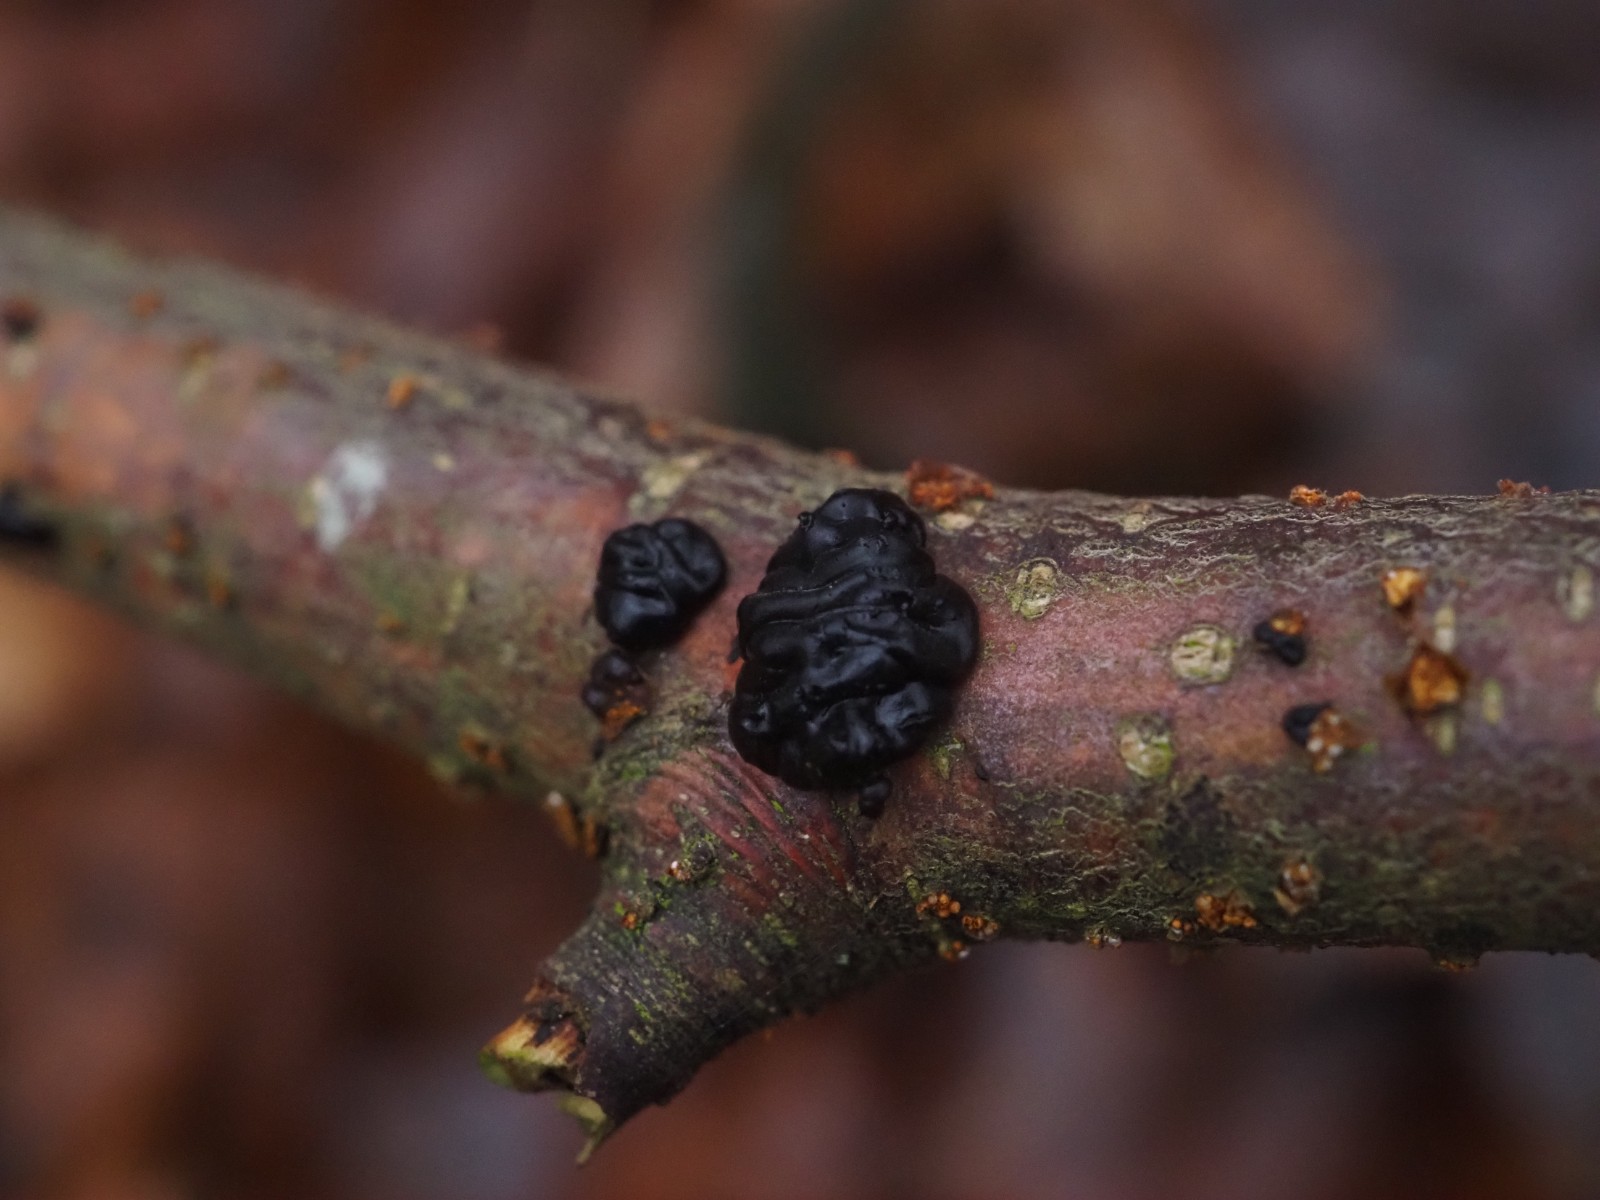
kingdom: Fungi
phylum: Basidiomycota
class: Agaricomycetes
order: Auriculariales
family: Auriculariaceae
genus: Exidia
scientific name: Exidia nigricans
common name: almindelig bævretop
